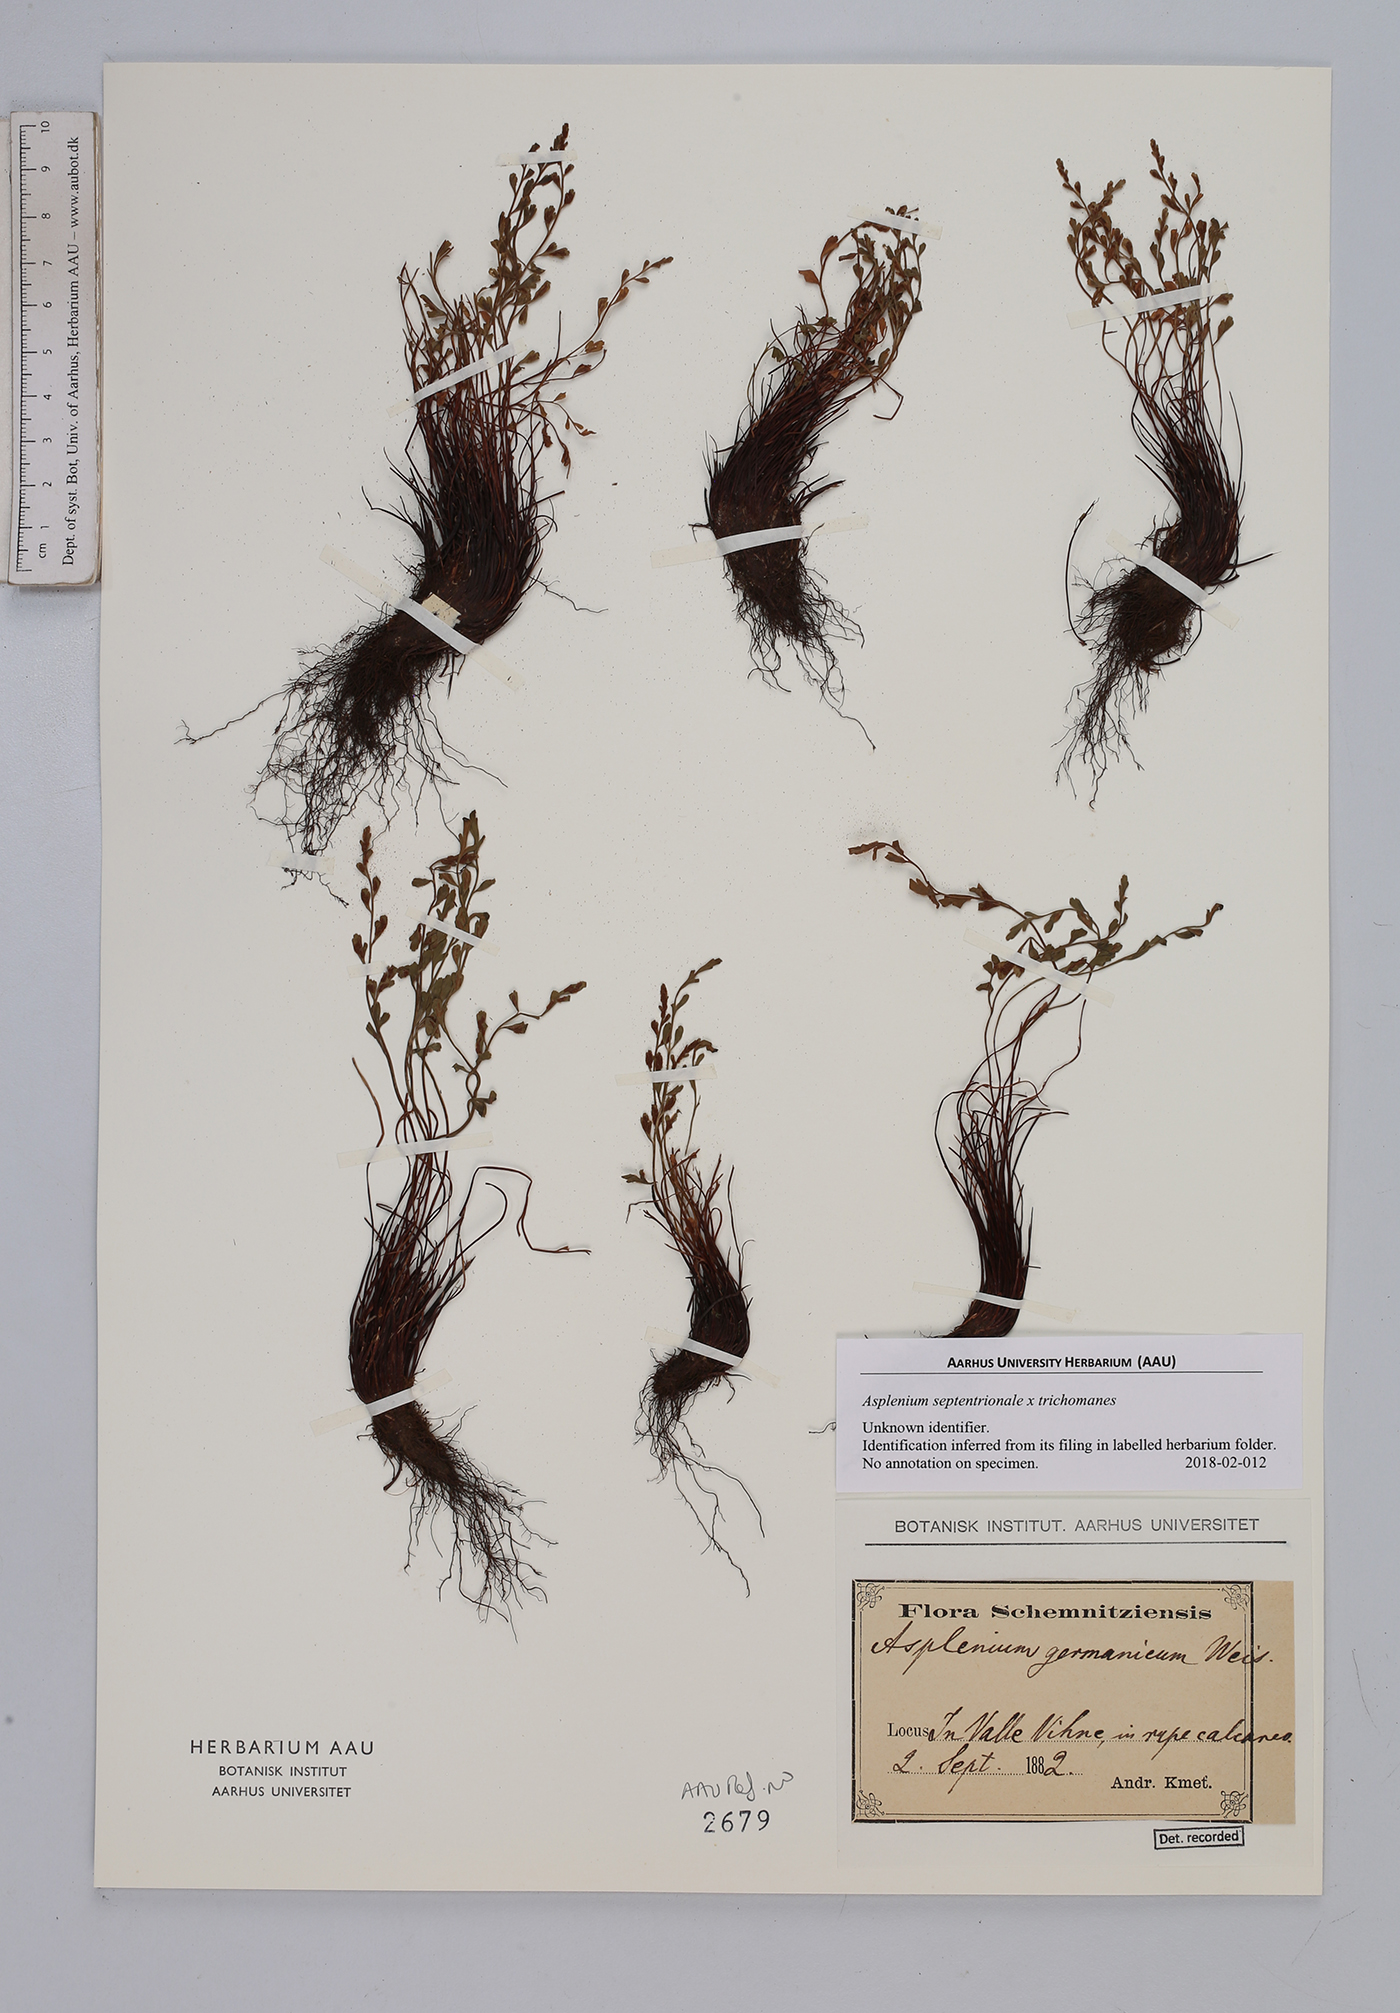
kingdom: Plantae
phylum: Tracheophyta
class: Polypodiopsida
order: Polypodiales
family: Aspleniaceae
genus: Asplenium
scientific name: Asplenium
